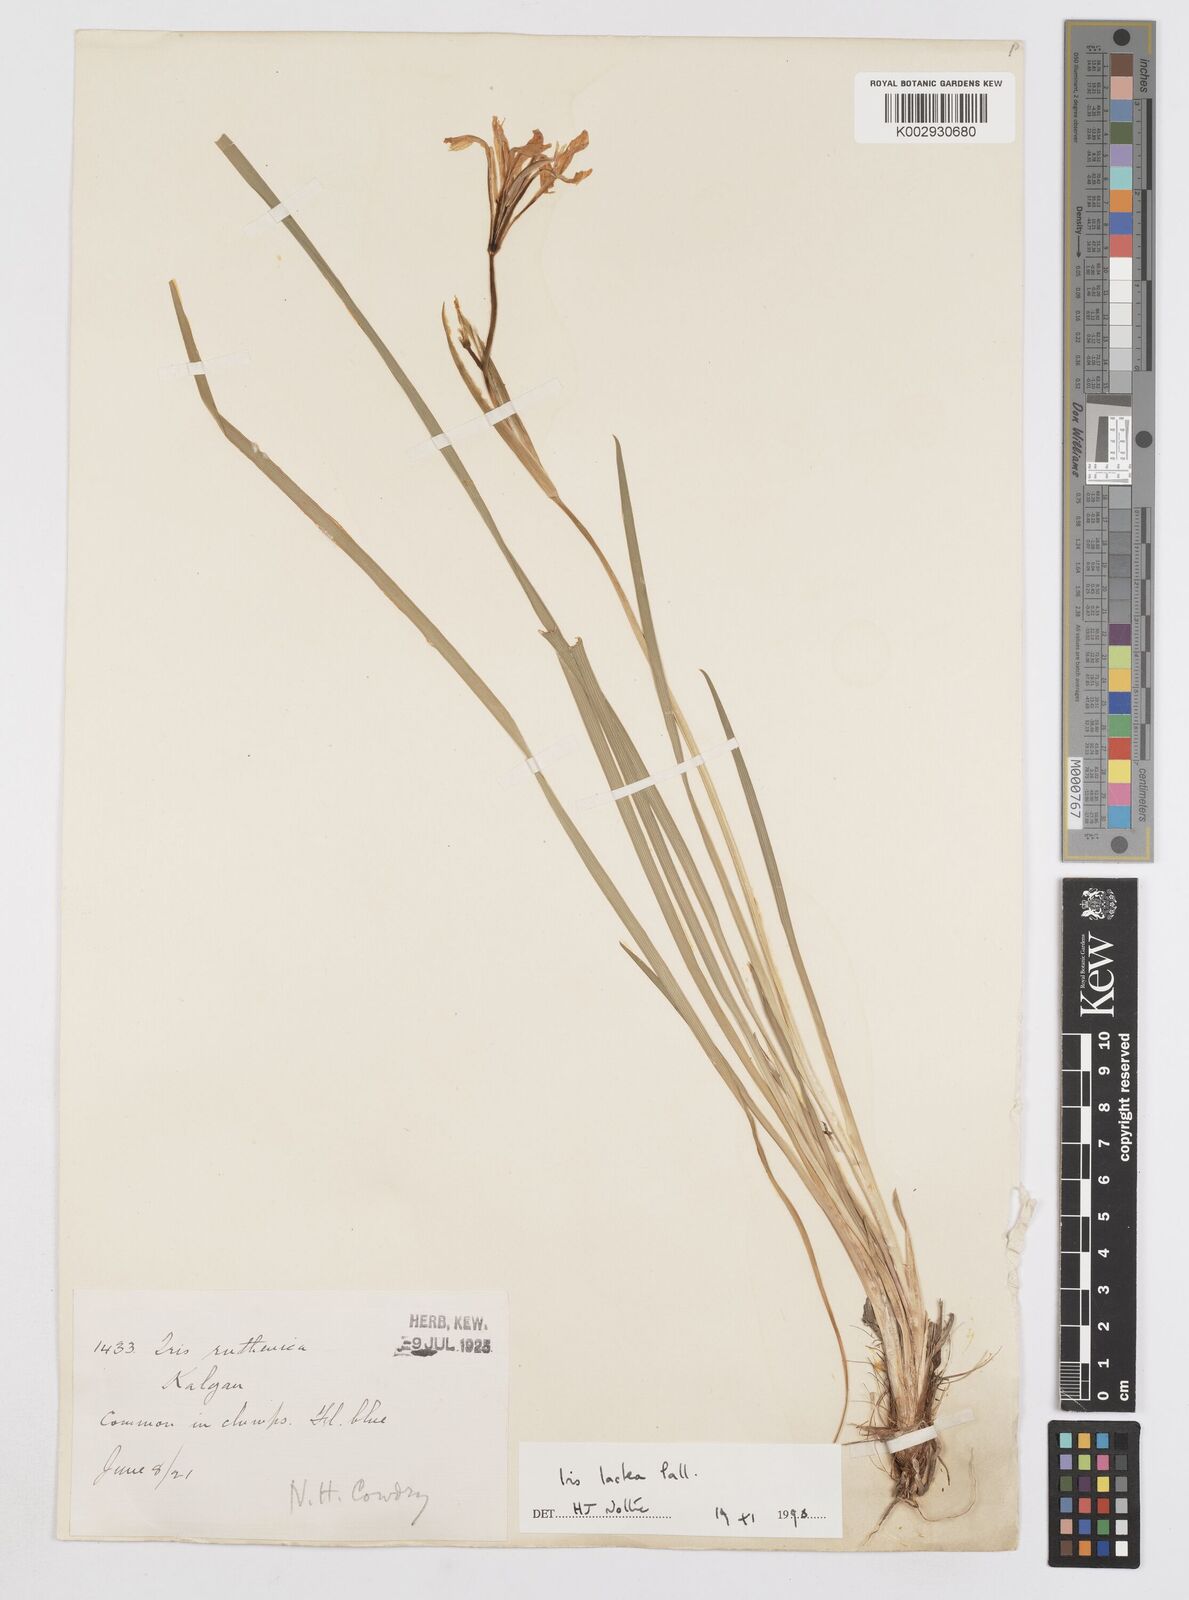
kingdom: Plantae
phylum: Tracheophyta
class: Liliopsida
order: Asparagales
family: Iridaceae
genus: Iris
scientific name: Iris ensata
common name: Beaked iris
